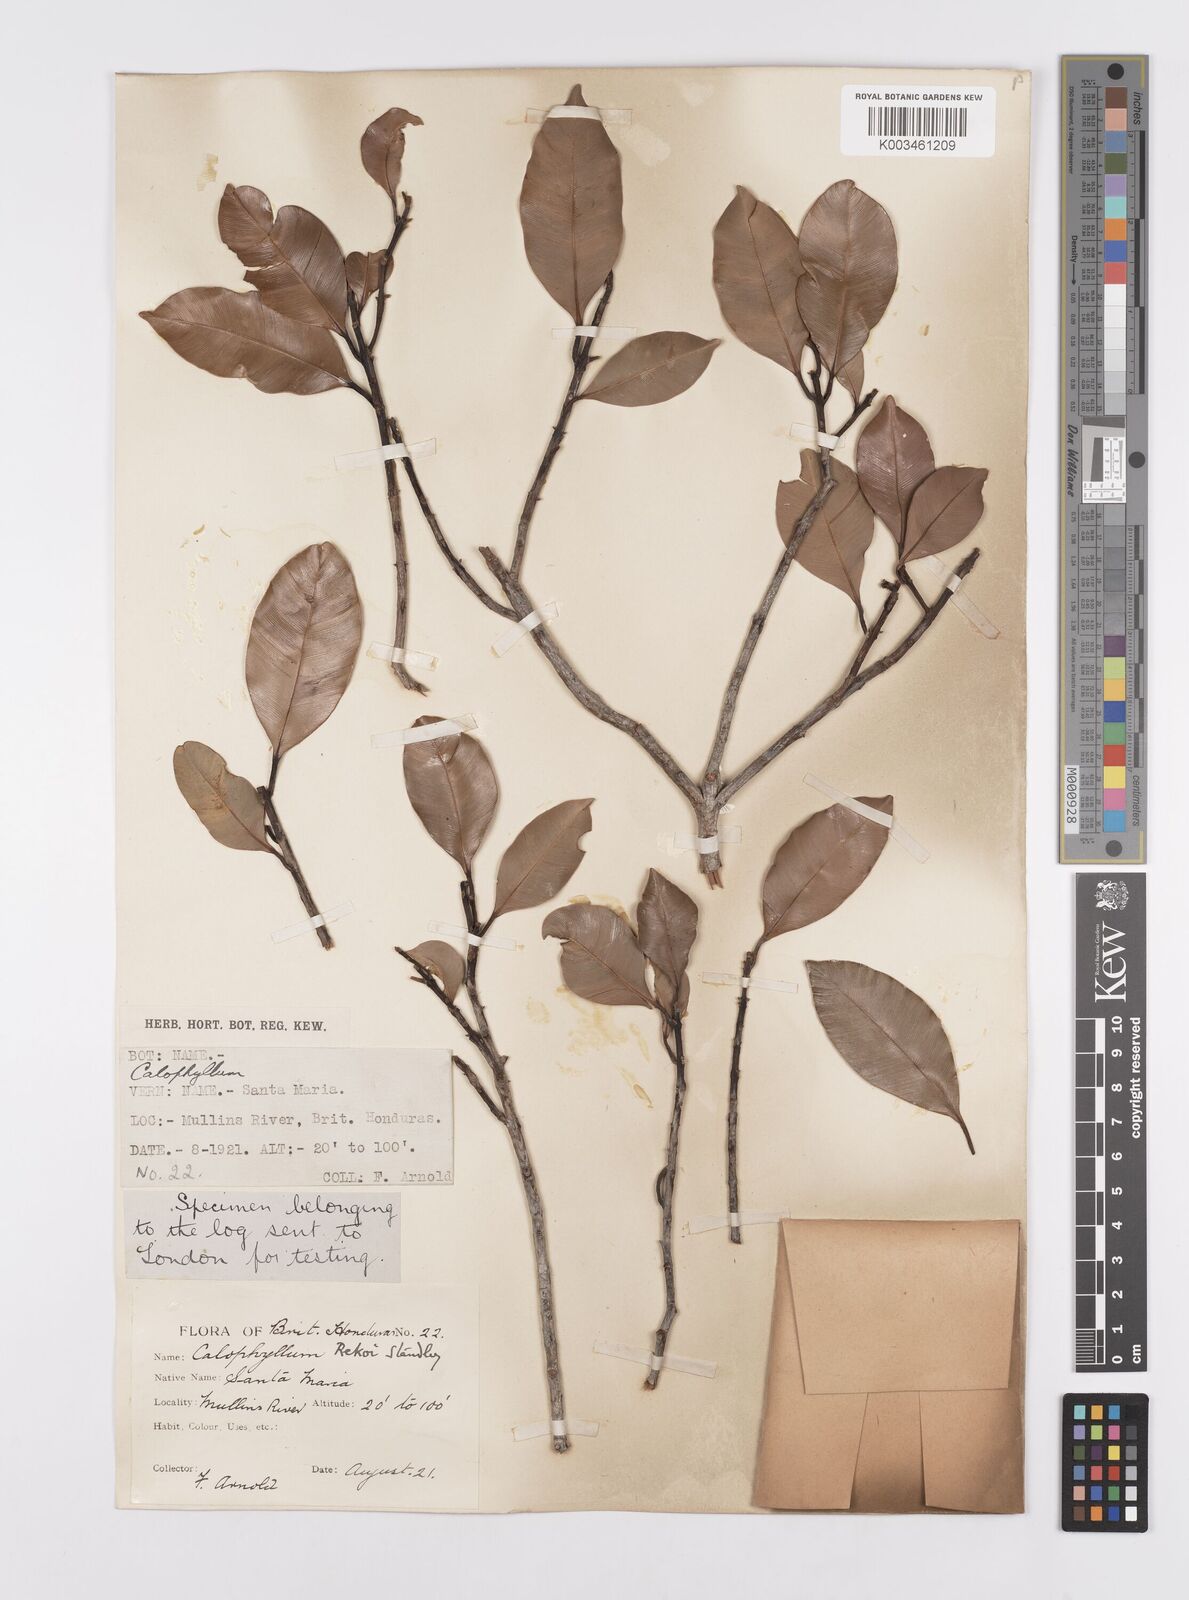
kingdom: Plantae
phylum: Tracheophyta
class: Magnoliopsida
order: Malpighiales
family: Calophyllaceae
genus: Calophyllum
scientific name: Calophyllum brasiliense
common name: Santa maria
